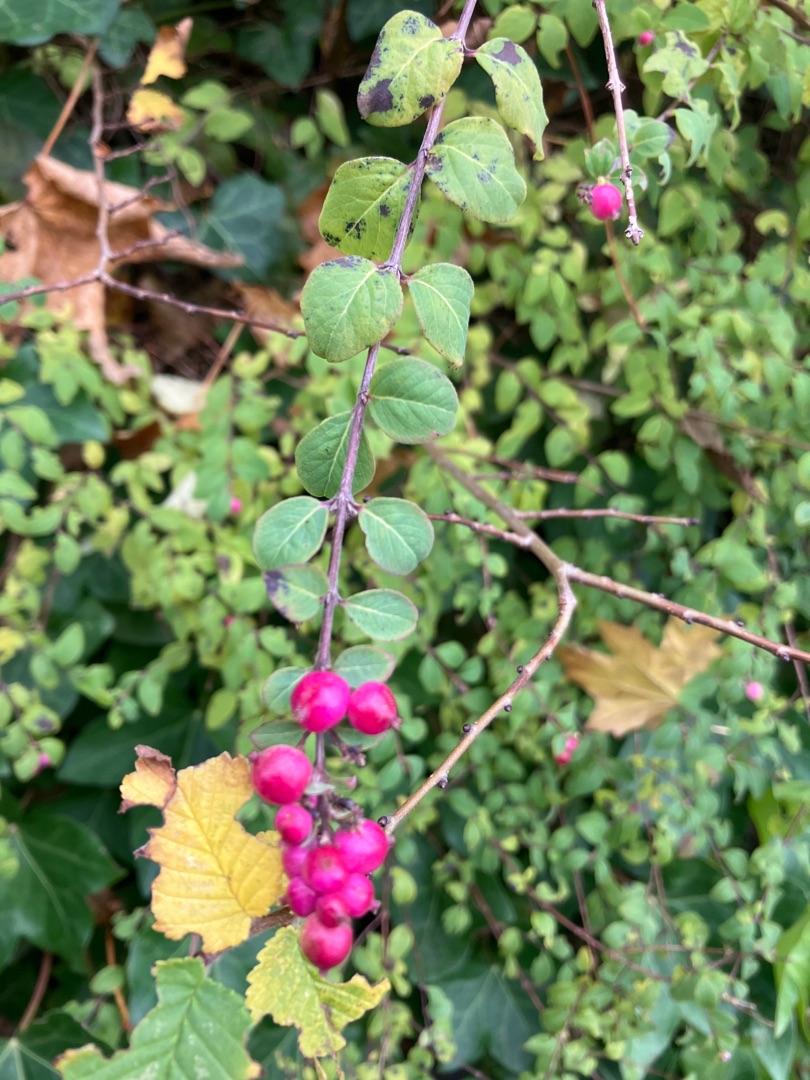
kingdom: Plantae
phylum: Tracheophyta
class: Magnoliopsida
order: Dipsacales
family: Caprifoliaceae
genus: Symphoricarpos
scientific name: Symphoricarpos chenaultii
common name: Rød snebær
